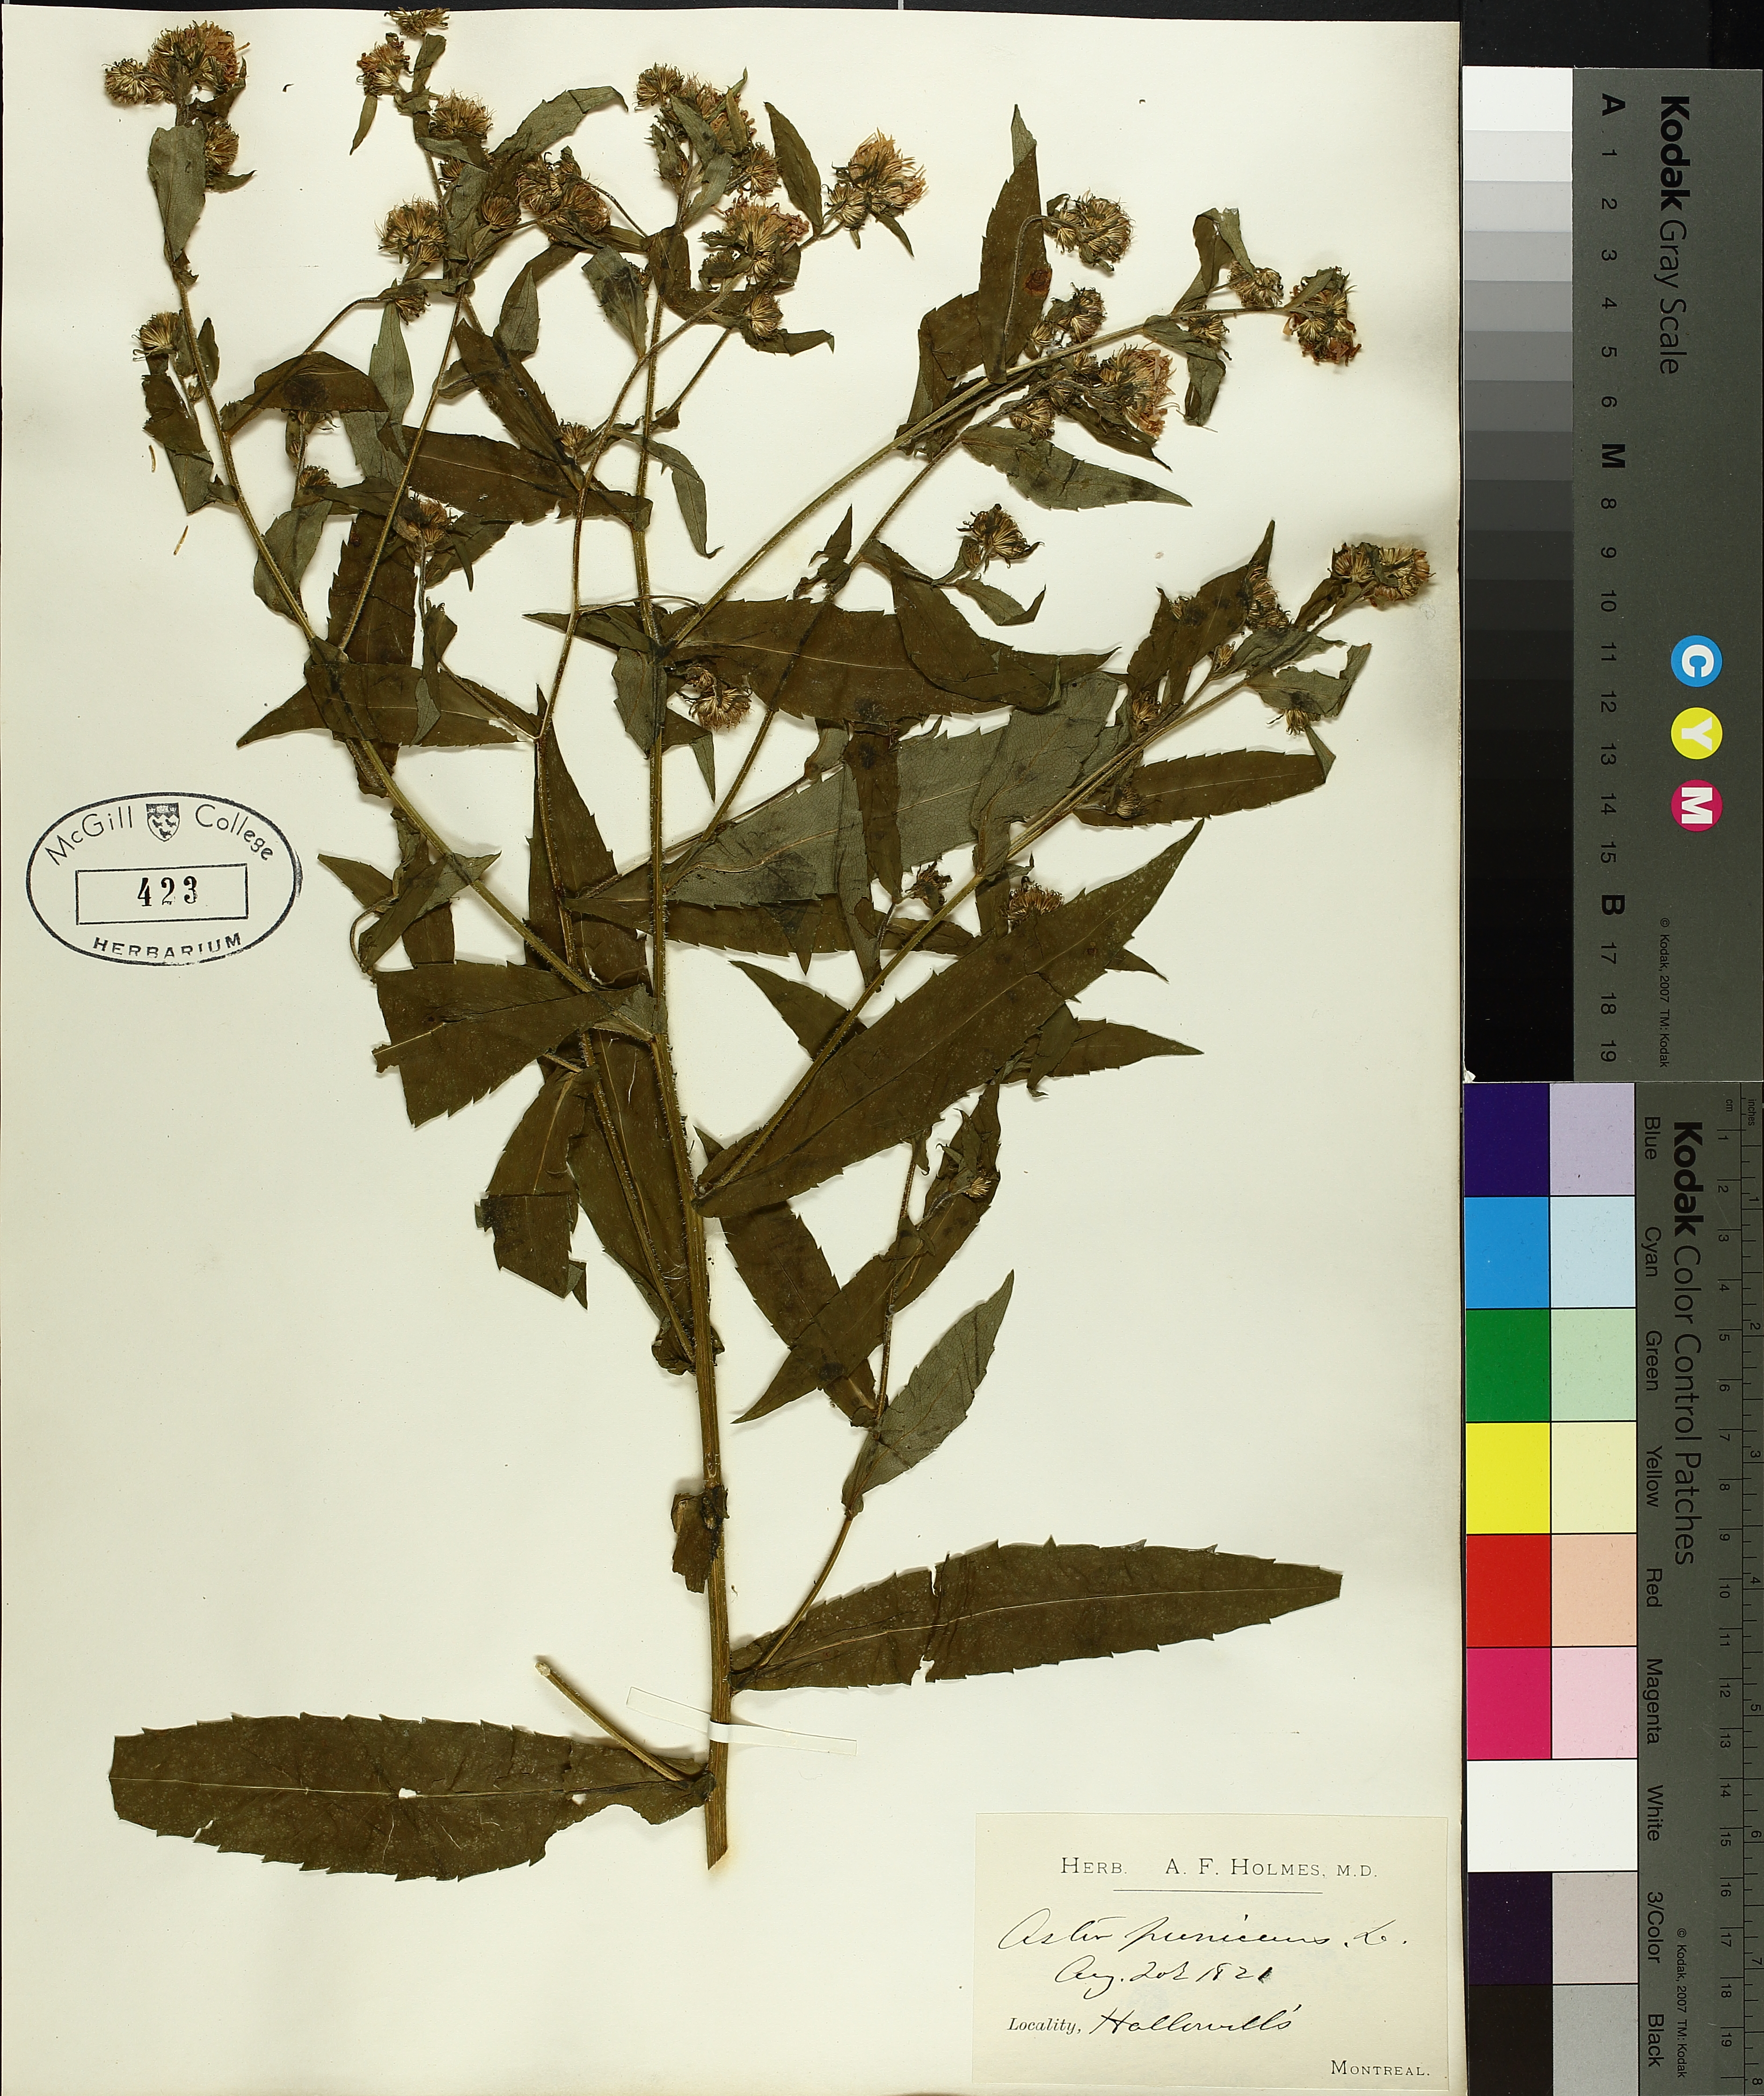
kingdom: Plantae
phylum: Tracheophyta
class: Magnoliopsida
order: Asterales
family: Asteraceae
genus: Symphyotrichum
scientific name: Symphyotrichum puniceum
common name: Bog aster
